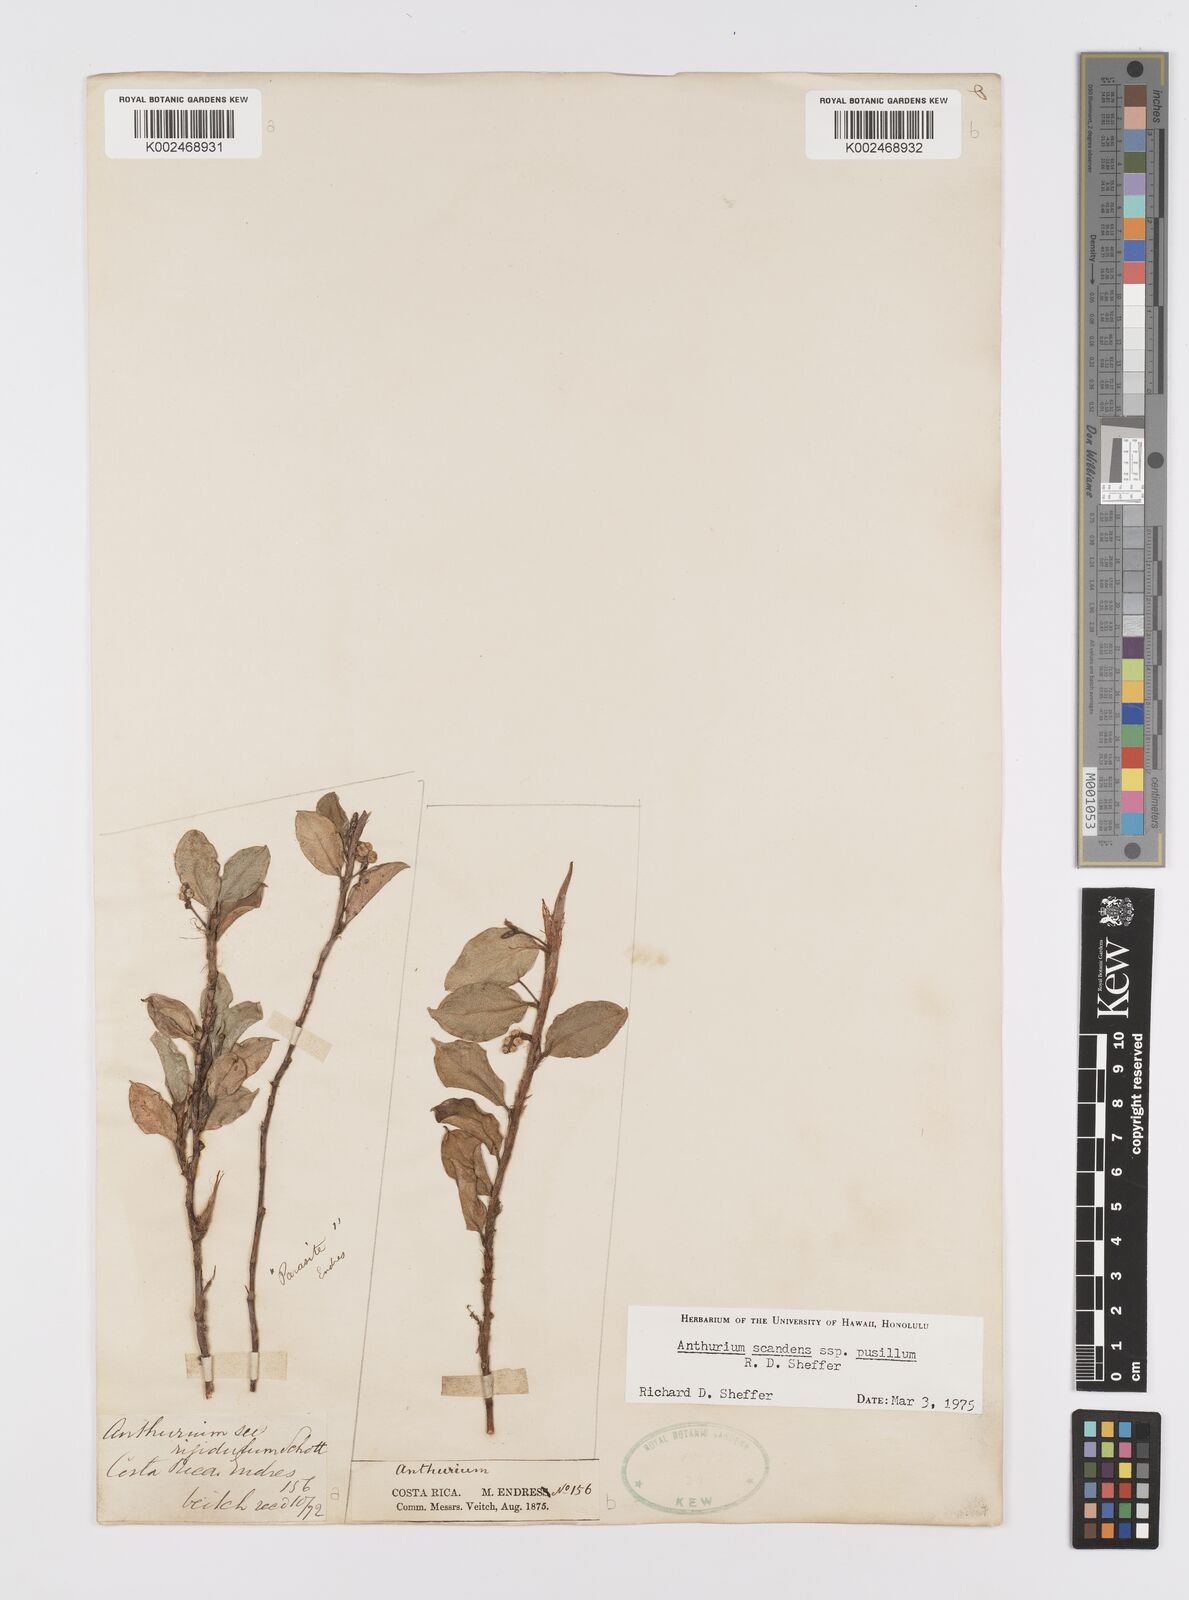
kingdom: Plantae
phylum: Tracheophyta
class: Liliopsida
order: Alismatales
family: Araceae
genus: Anthurium
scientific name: Anthurium scandens
